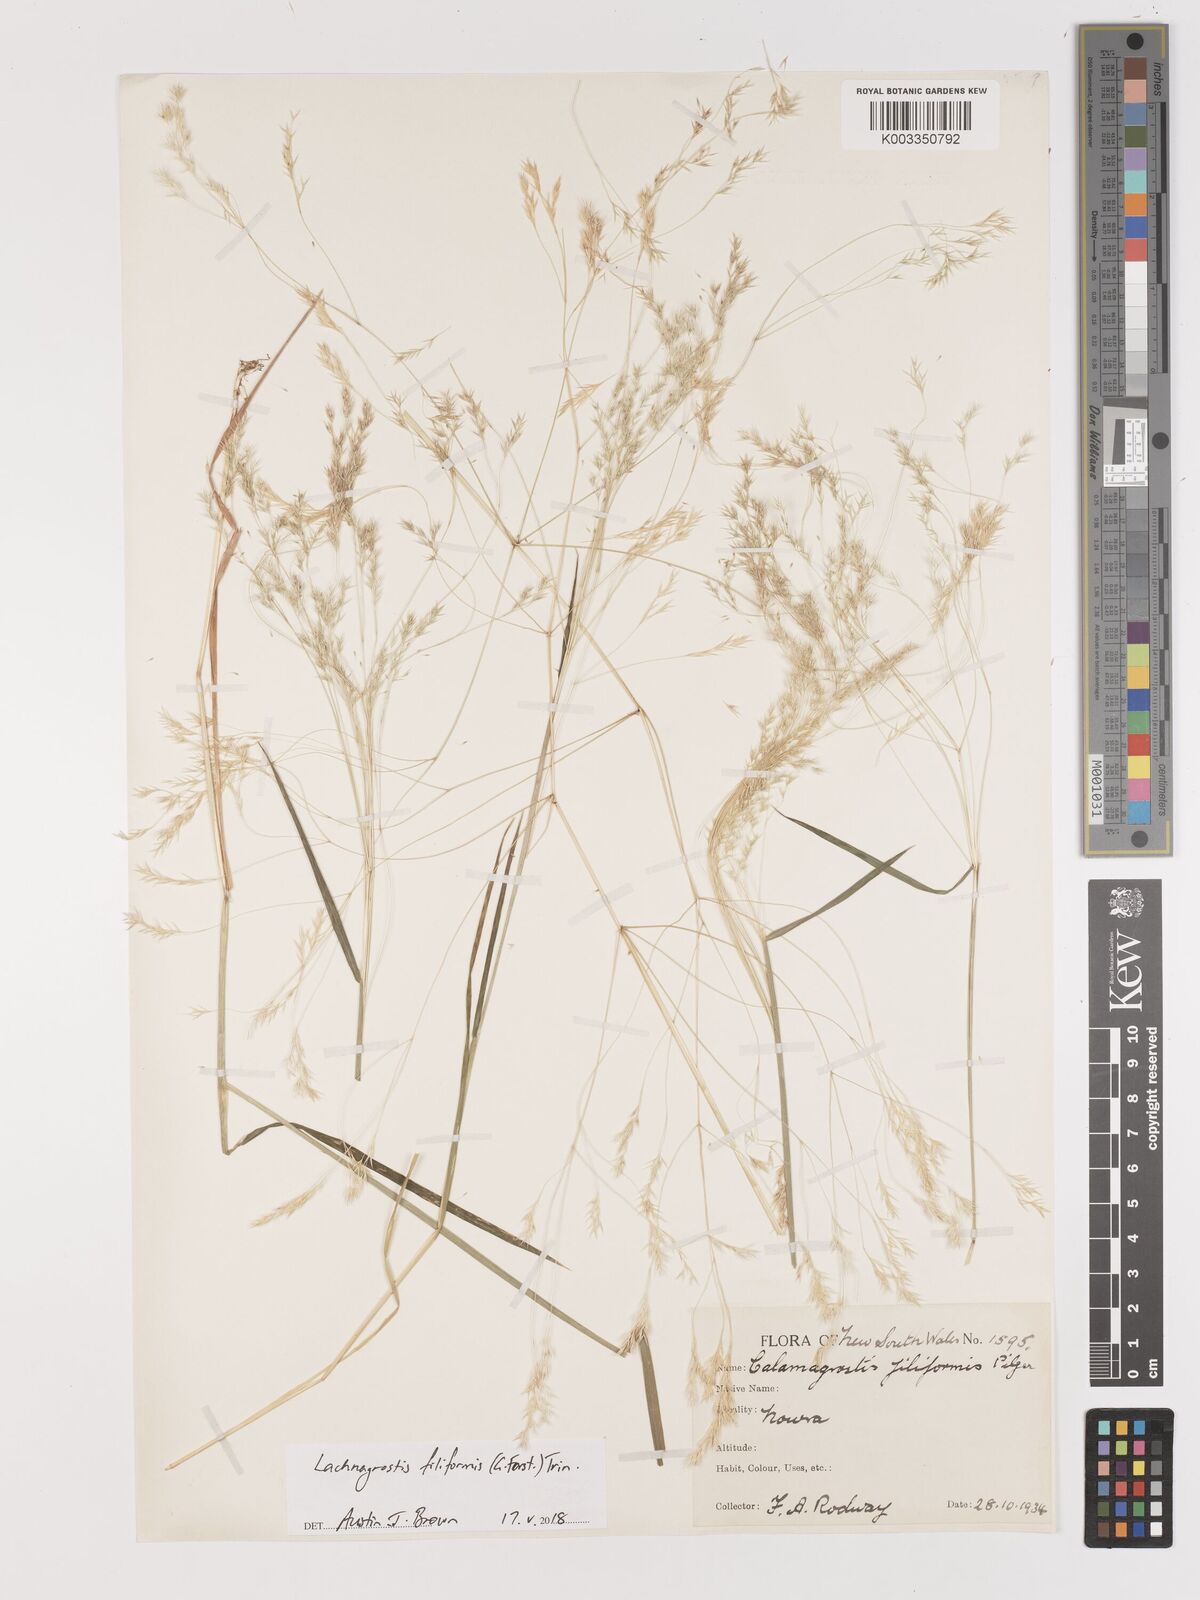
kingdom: Plantae
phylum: Tracheophyta
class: Liliopsida
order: Poales
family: Poaceae
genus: Lachnagrostis
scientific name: Lachnagrostis filiformis
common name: Bentgrass
